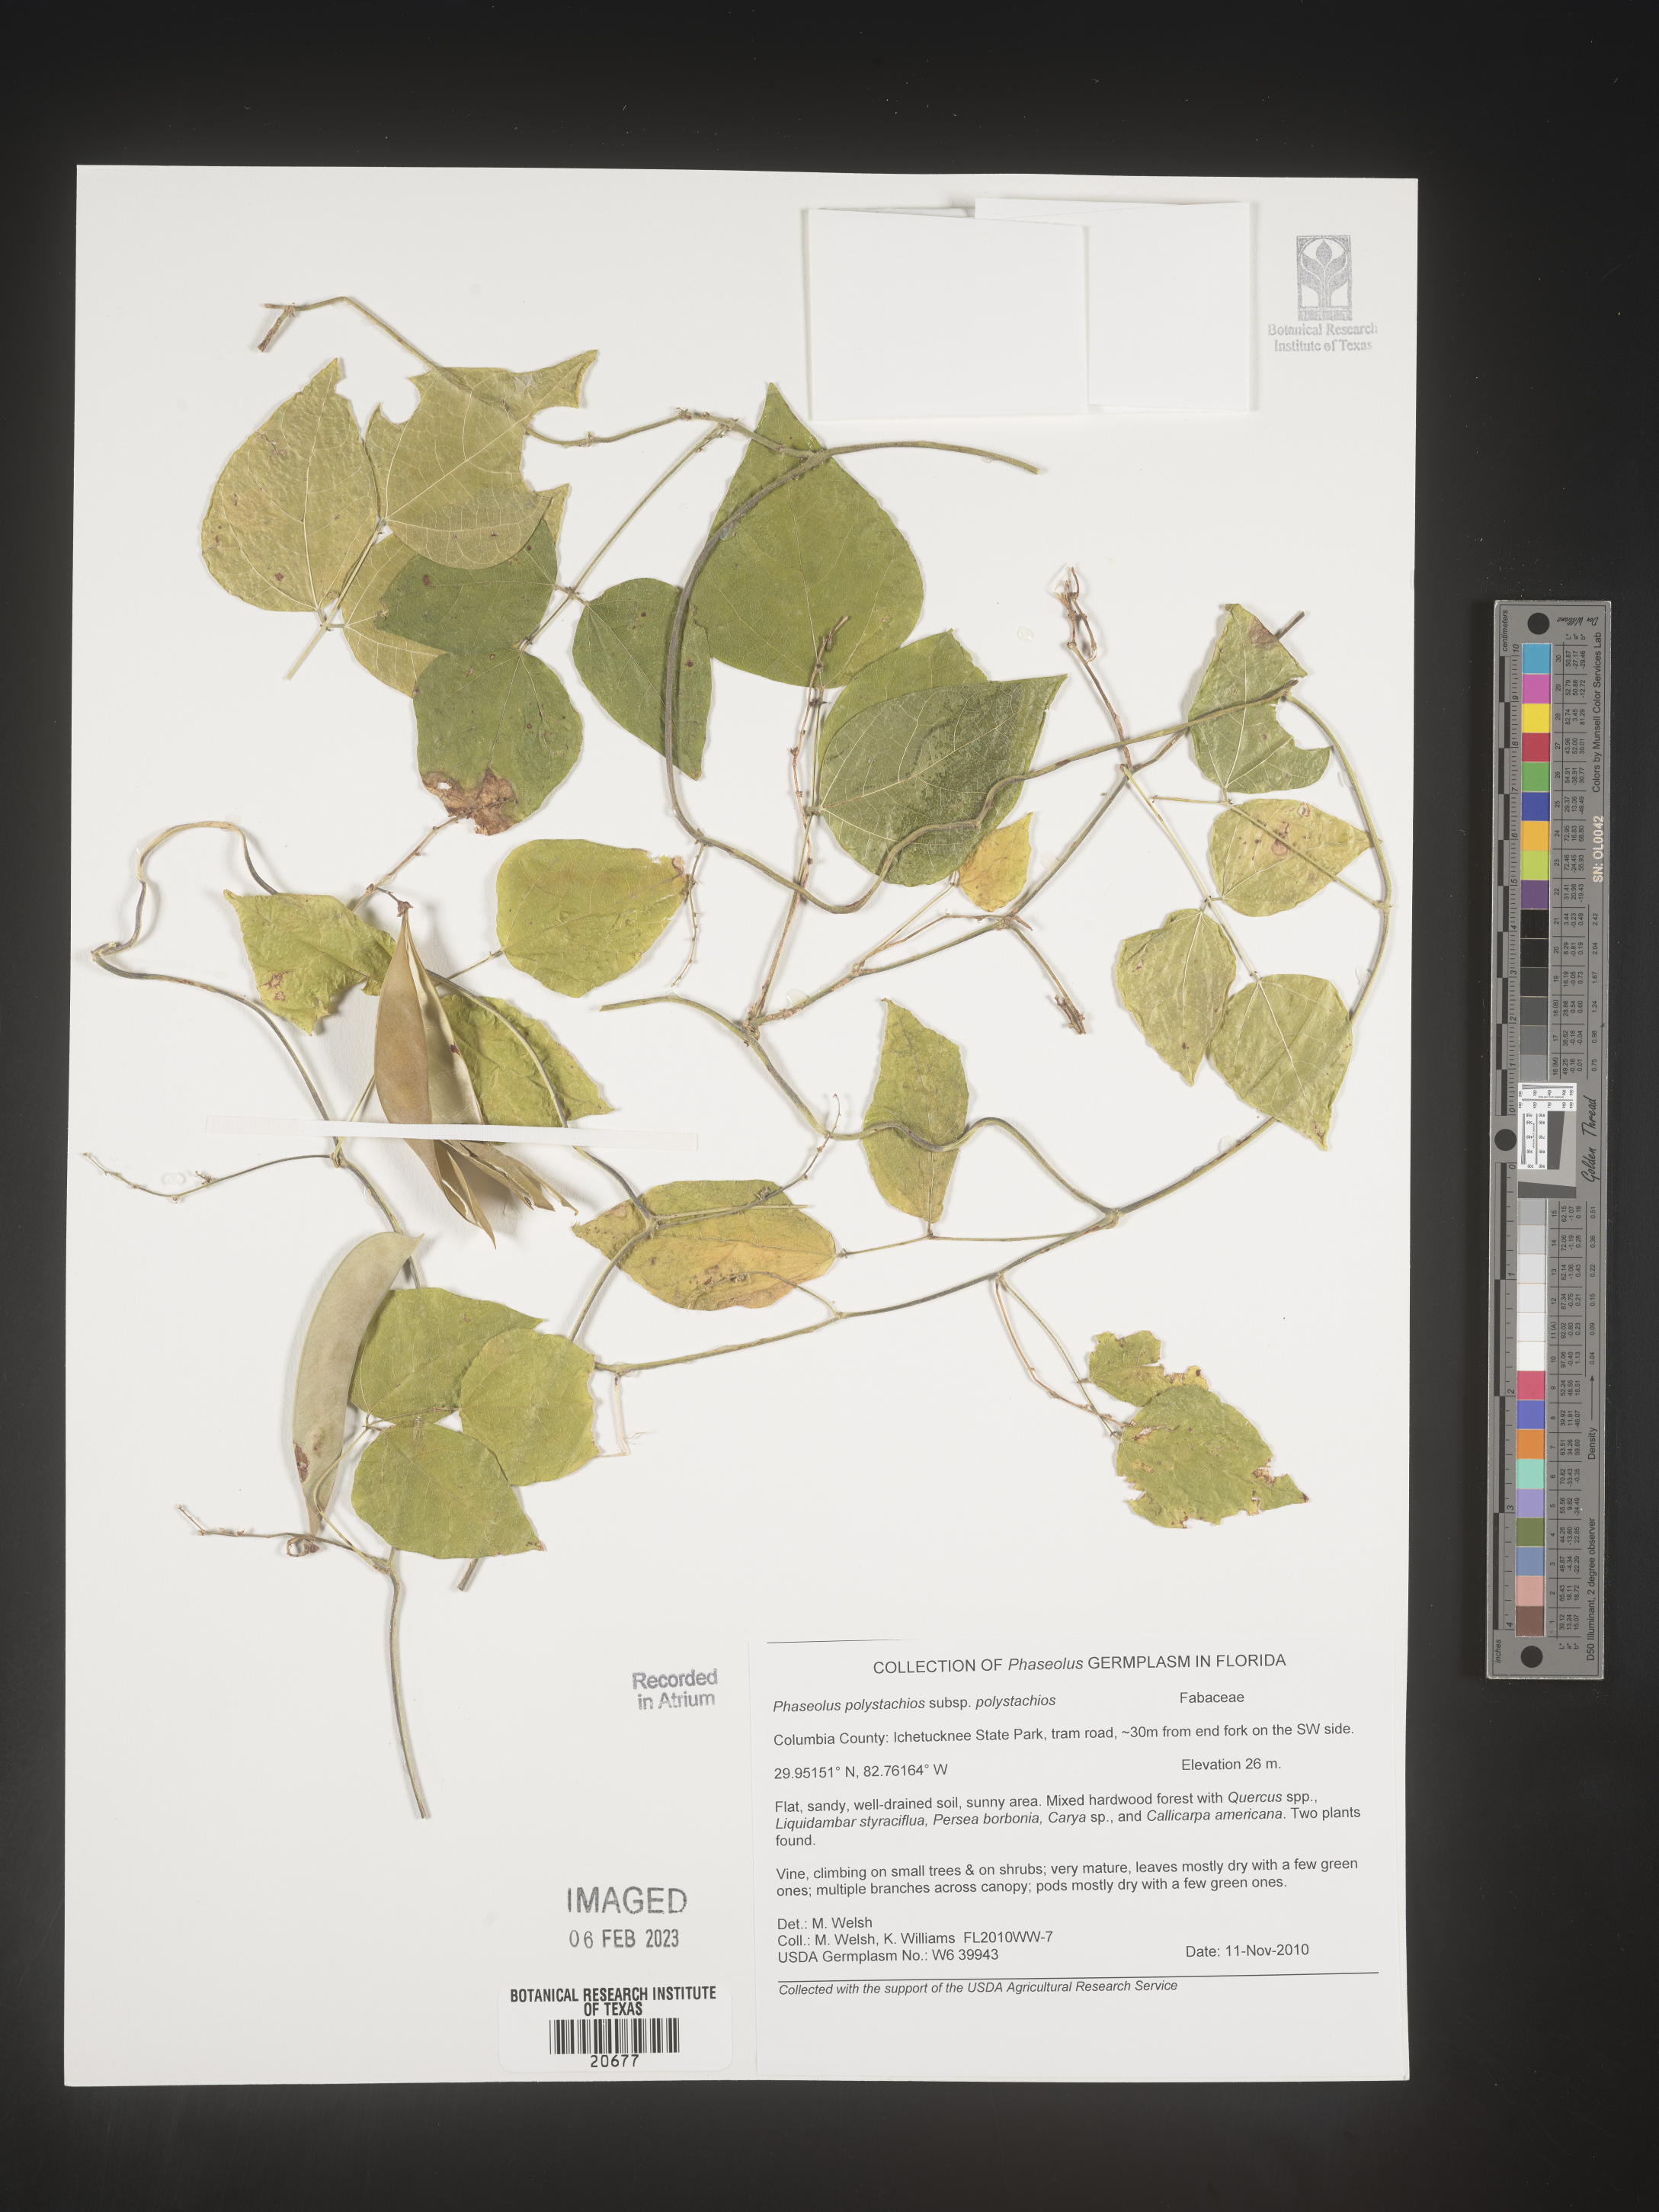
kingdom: Plantae
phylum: Tracheophyta
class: Magnoliopsida
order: Fabales
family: Fabaceae
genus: Phaseolus
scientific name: Phaseolus polystachios
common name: Thicket bean
